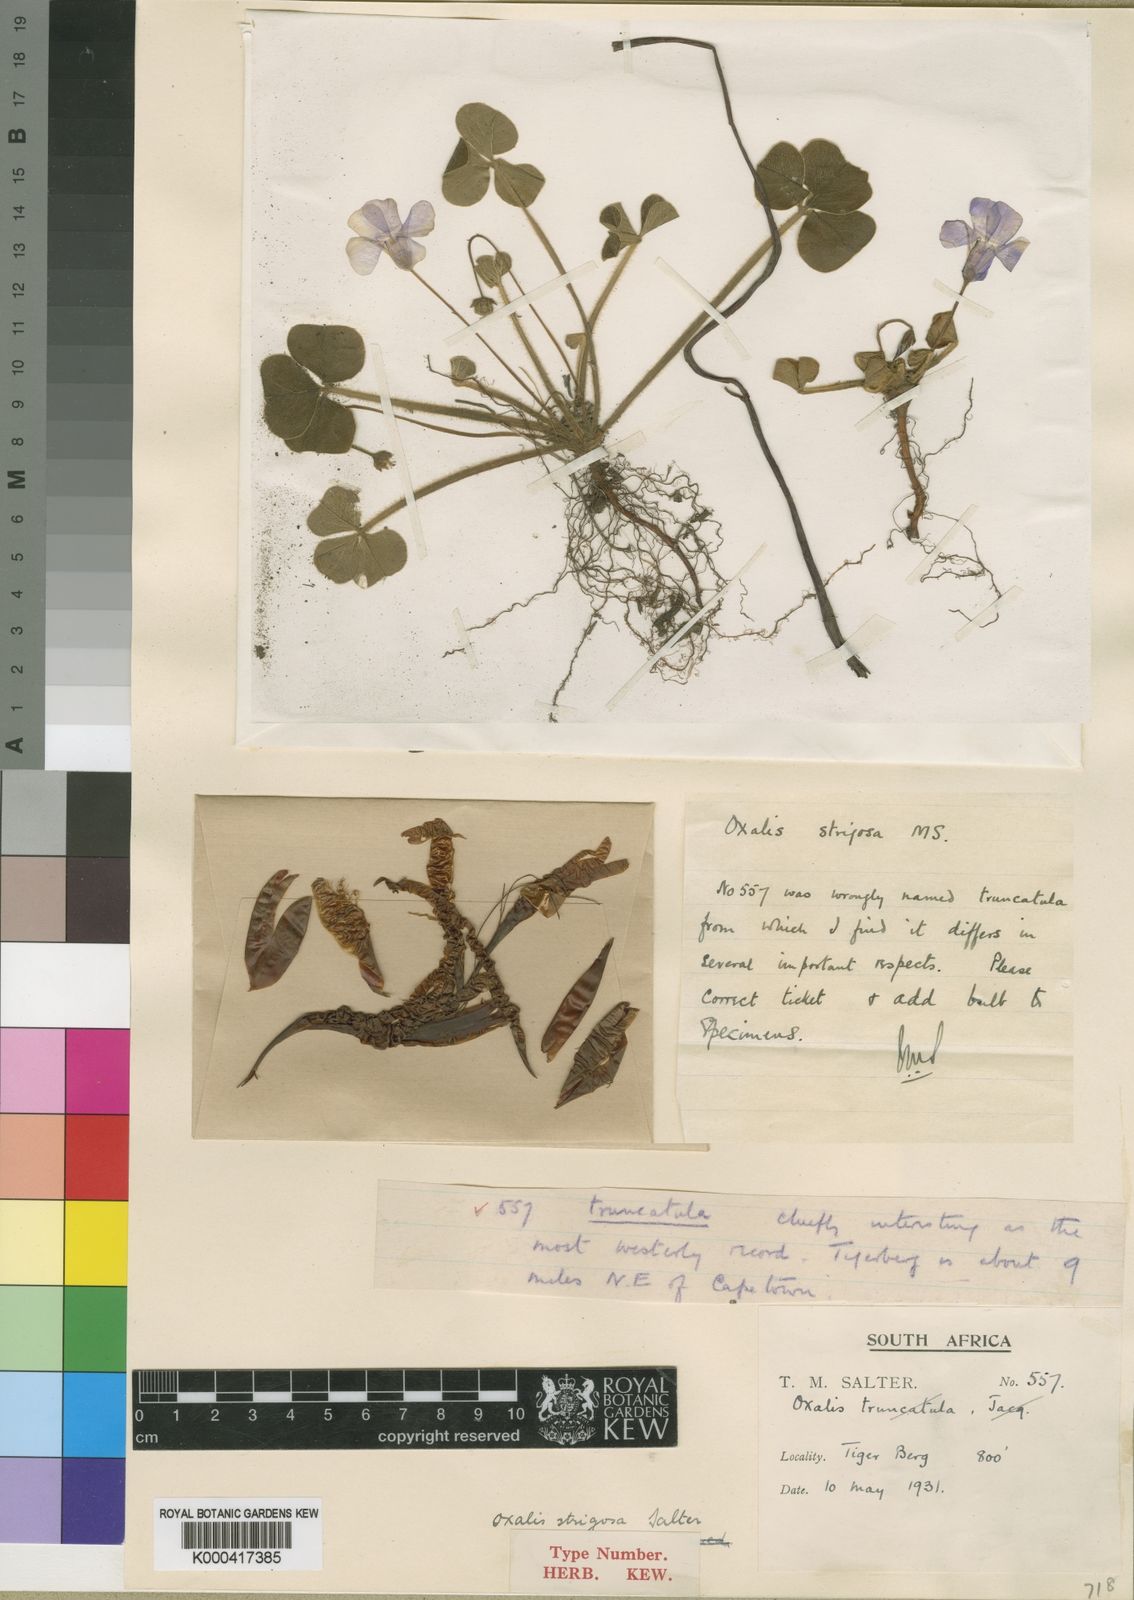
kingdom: Plantae
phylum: Tracheophyta
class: Magnoliopsida
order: Oxalidales
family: Oxalidaceae
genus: Oxalis
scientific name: Oxalis strigosa
